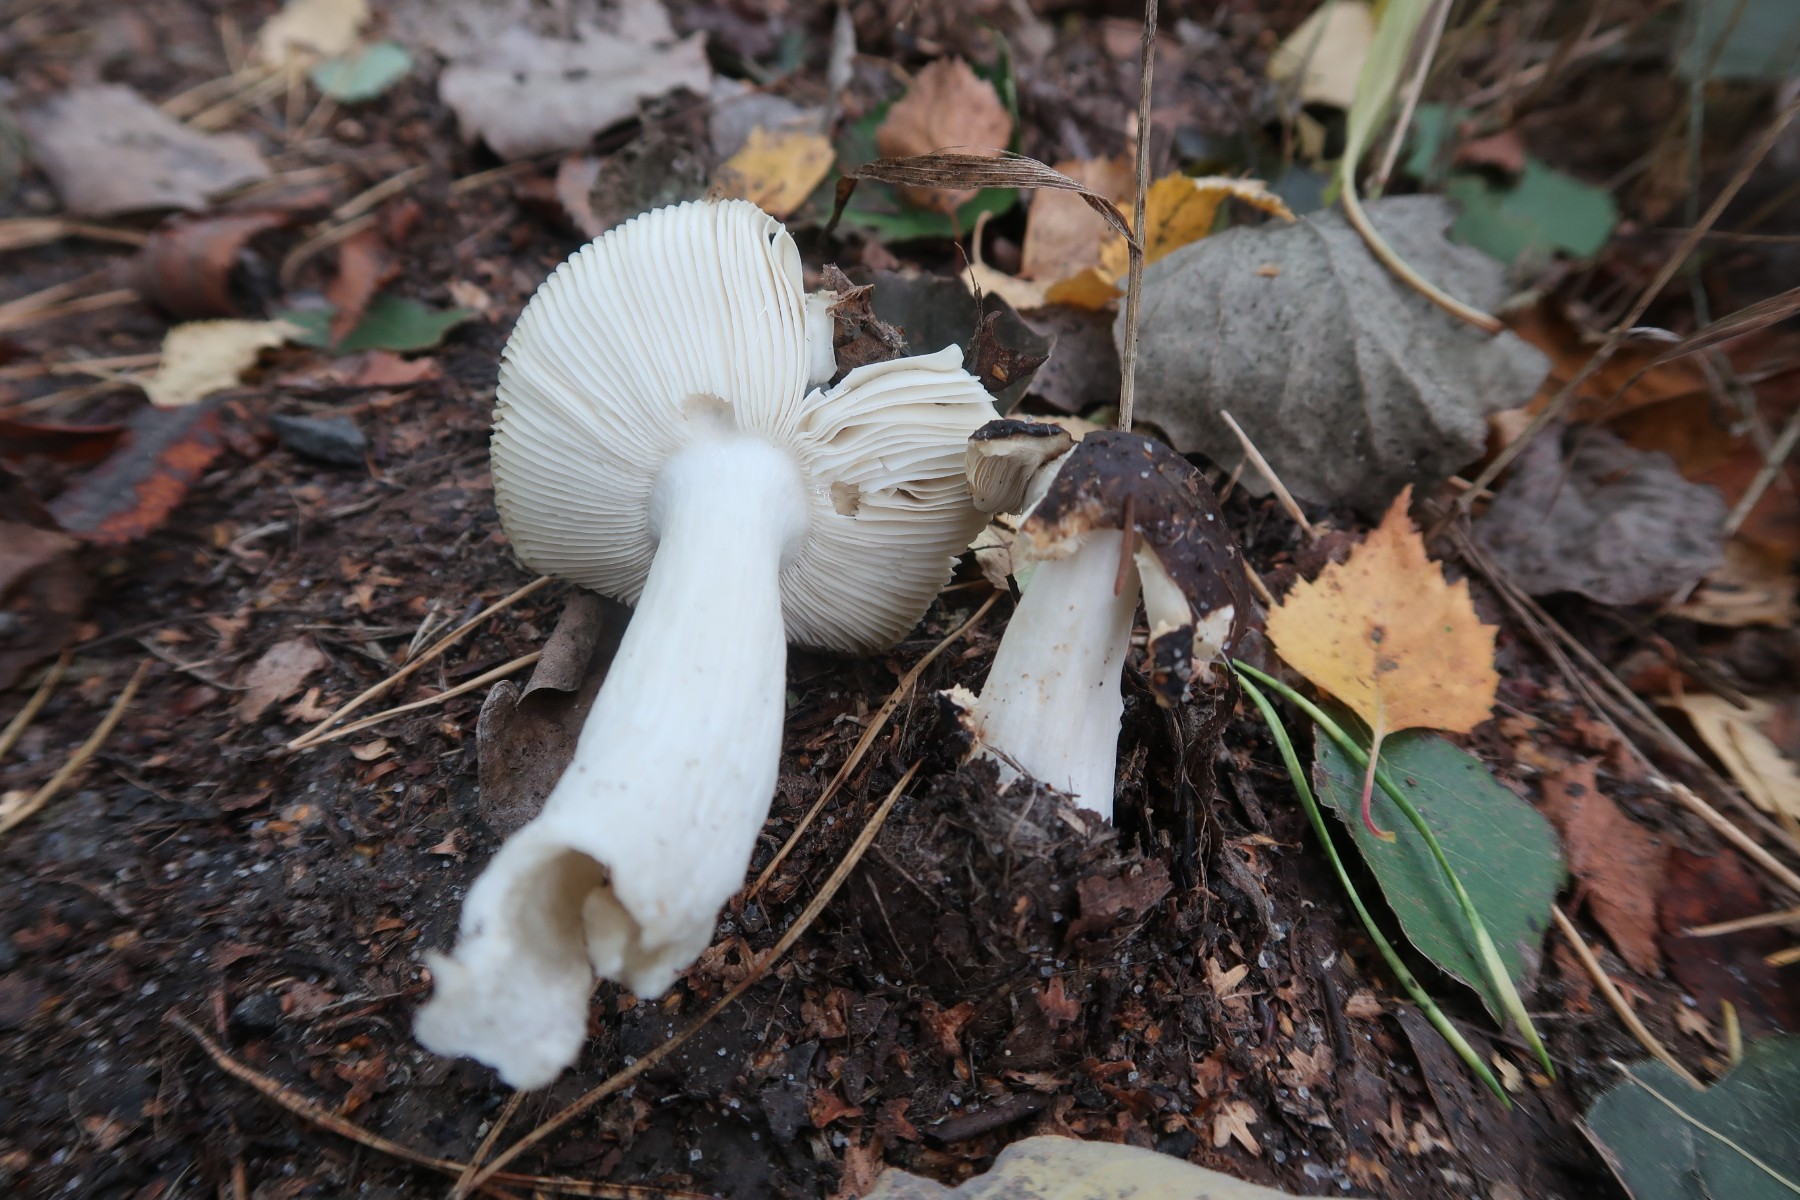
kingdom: Fungi
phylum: Basidiomycota
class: Agaricomycetes
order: Russulales
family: Russulaceae
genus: Russula
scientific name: Russula brunneoviolacea
